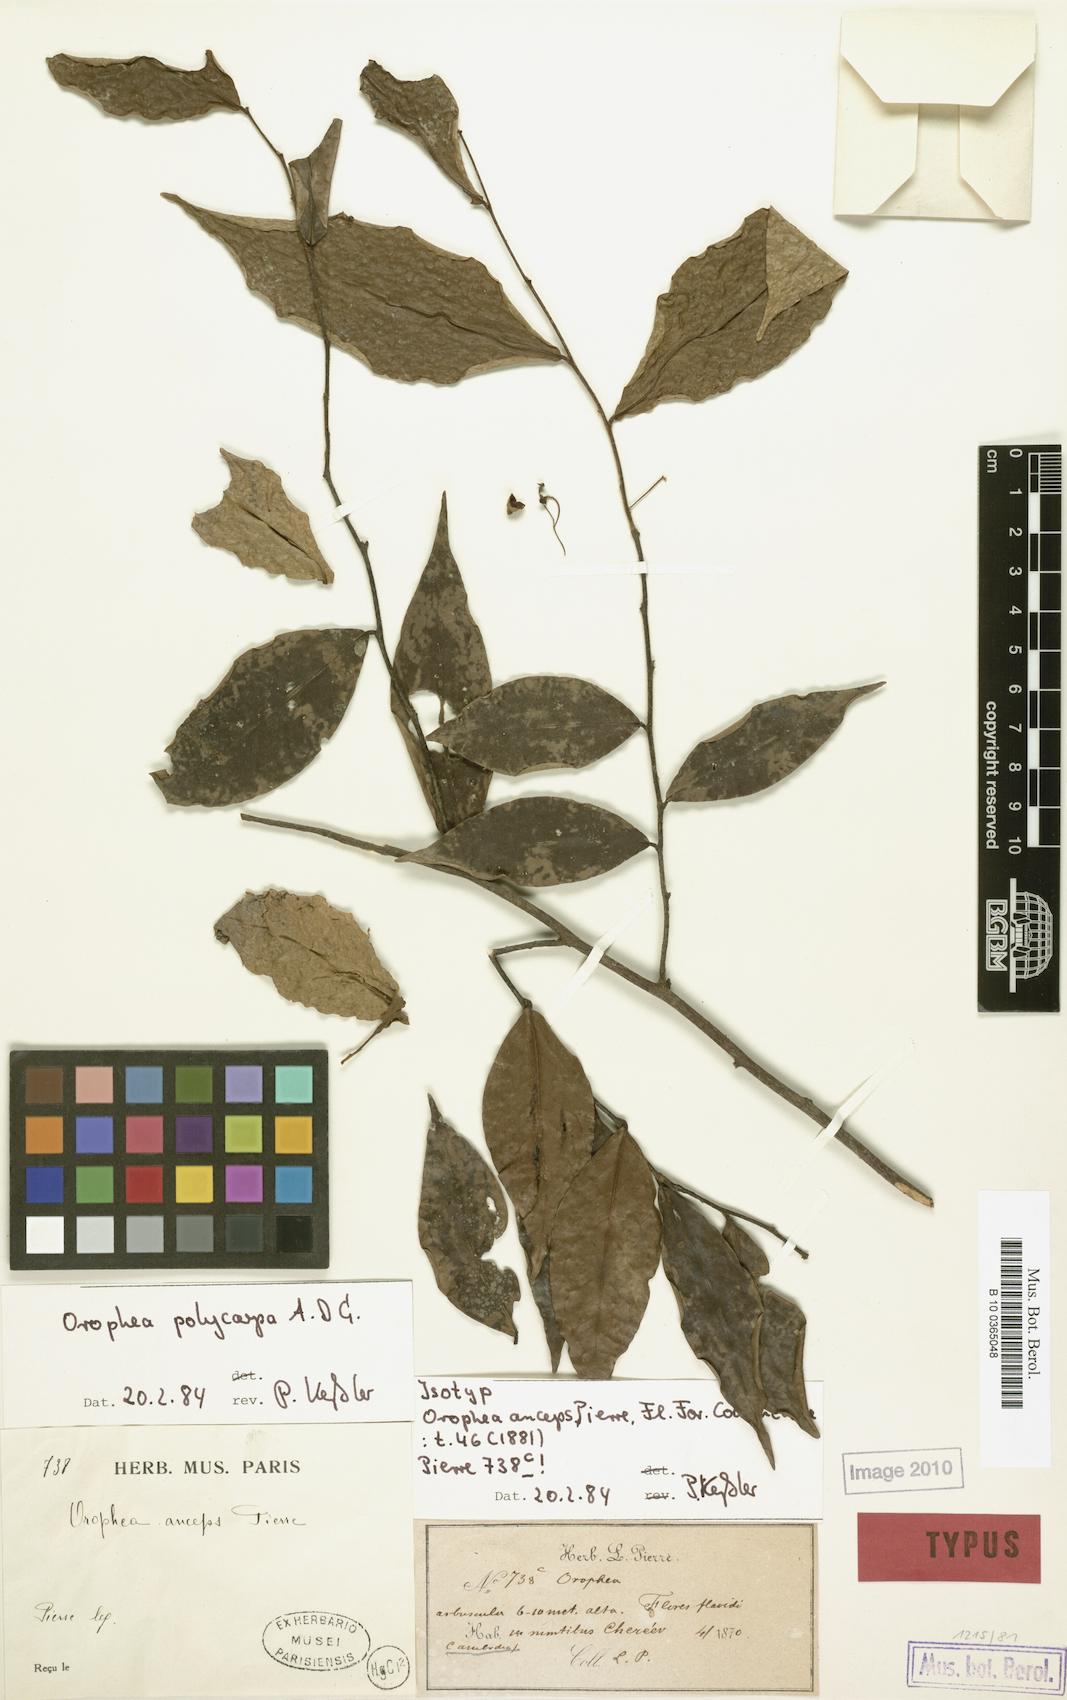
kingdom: Plantae
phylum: Tracheophyta
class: Magnoliopsida
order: Magnoliales
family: Annonaceae
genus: Orophea
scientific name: Orophea polycarpa
